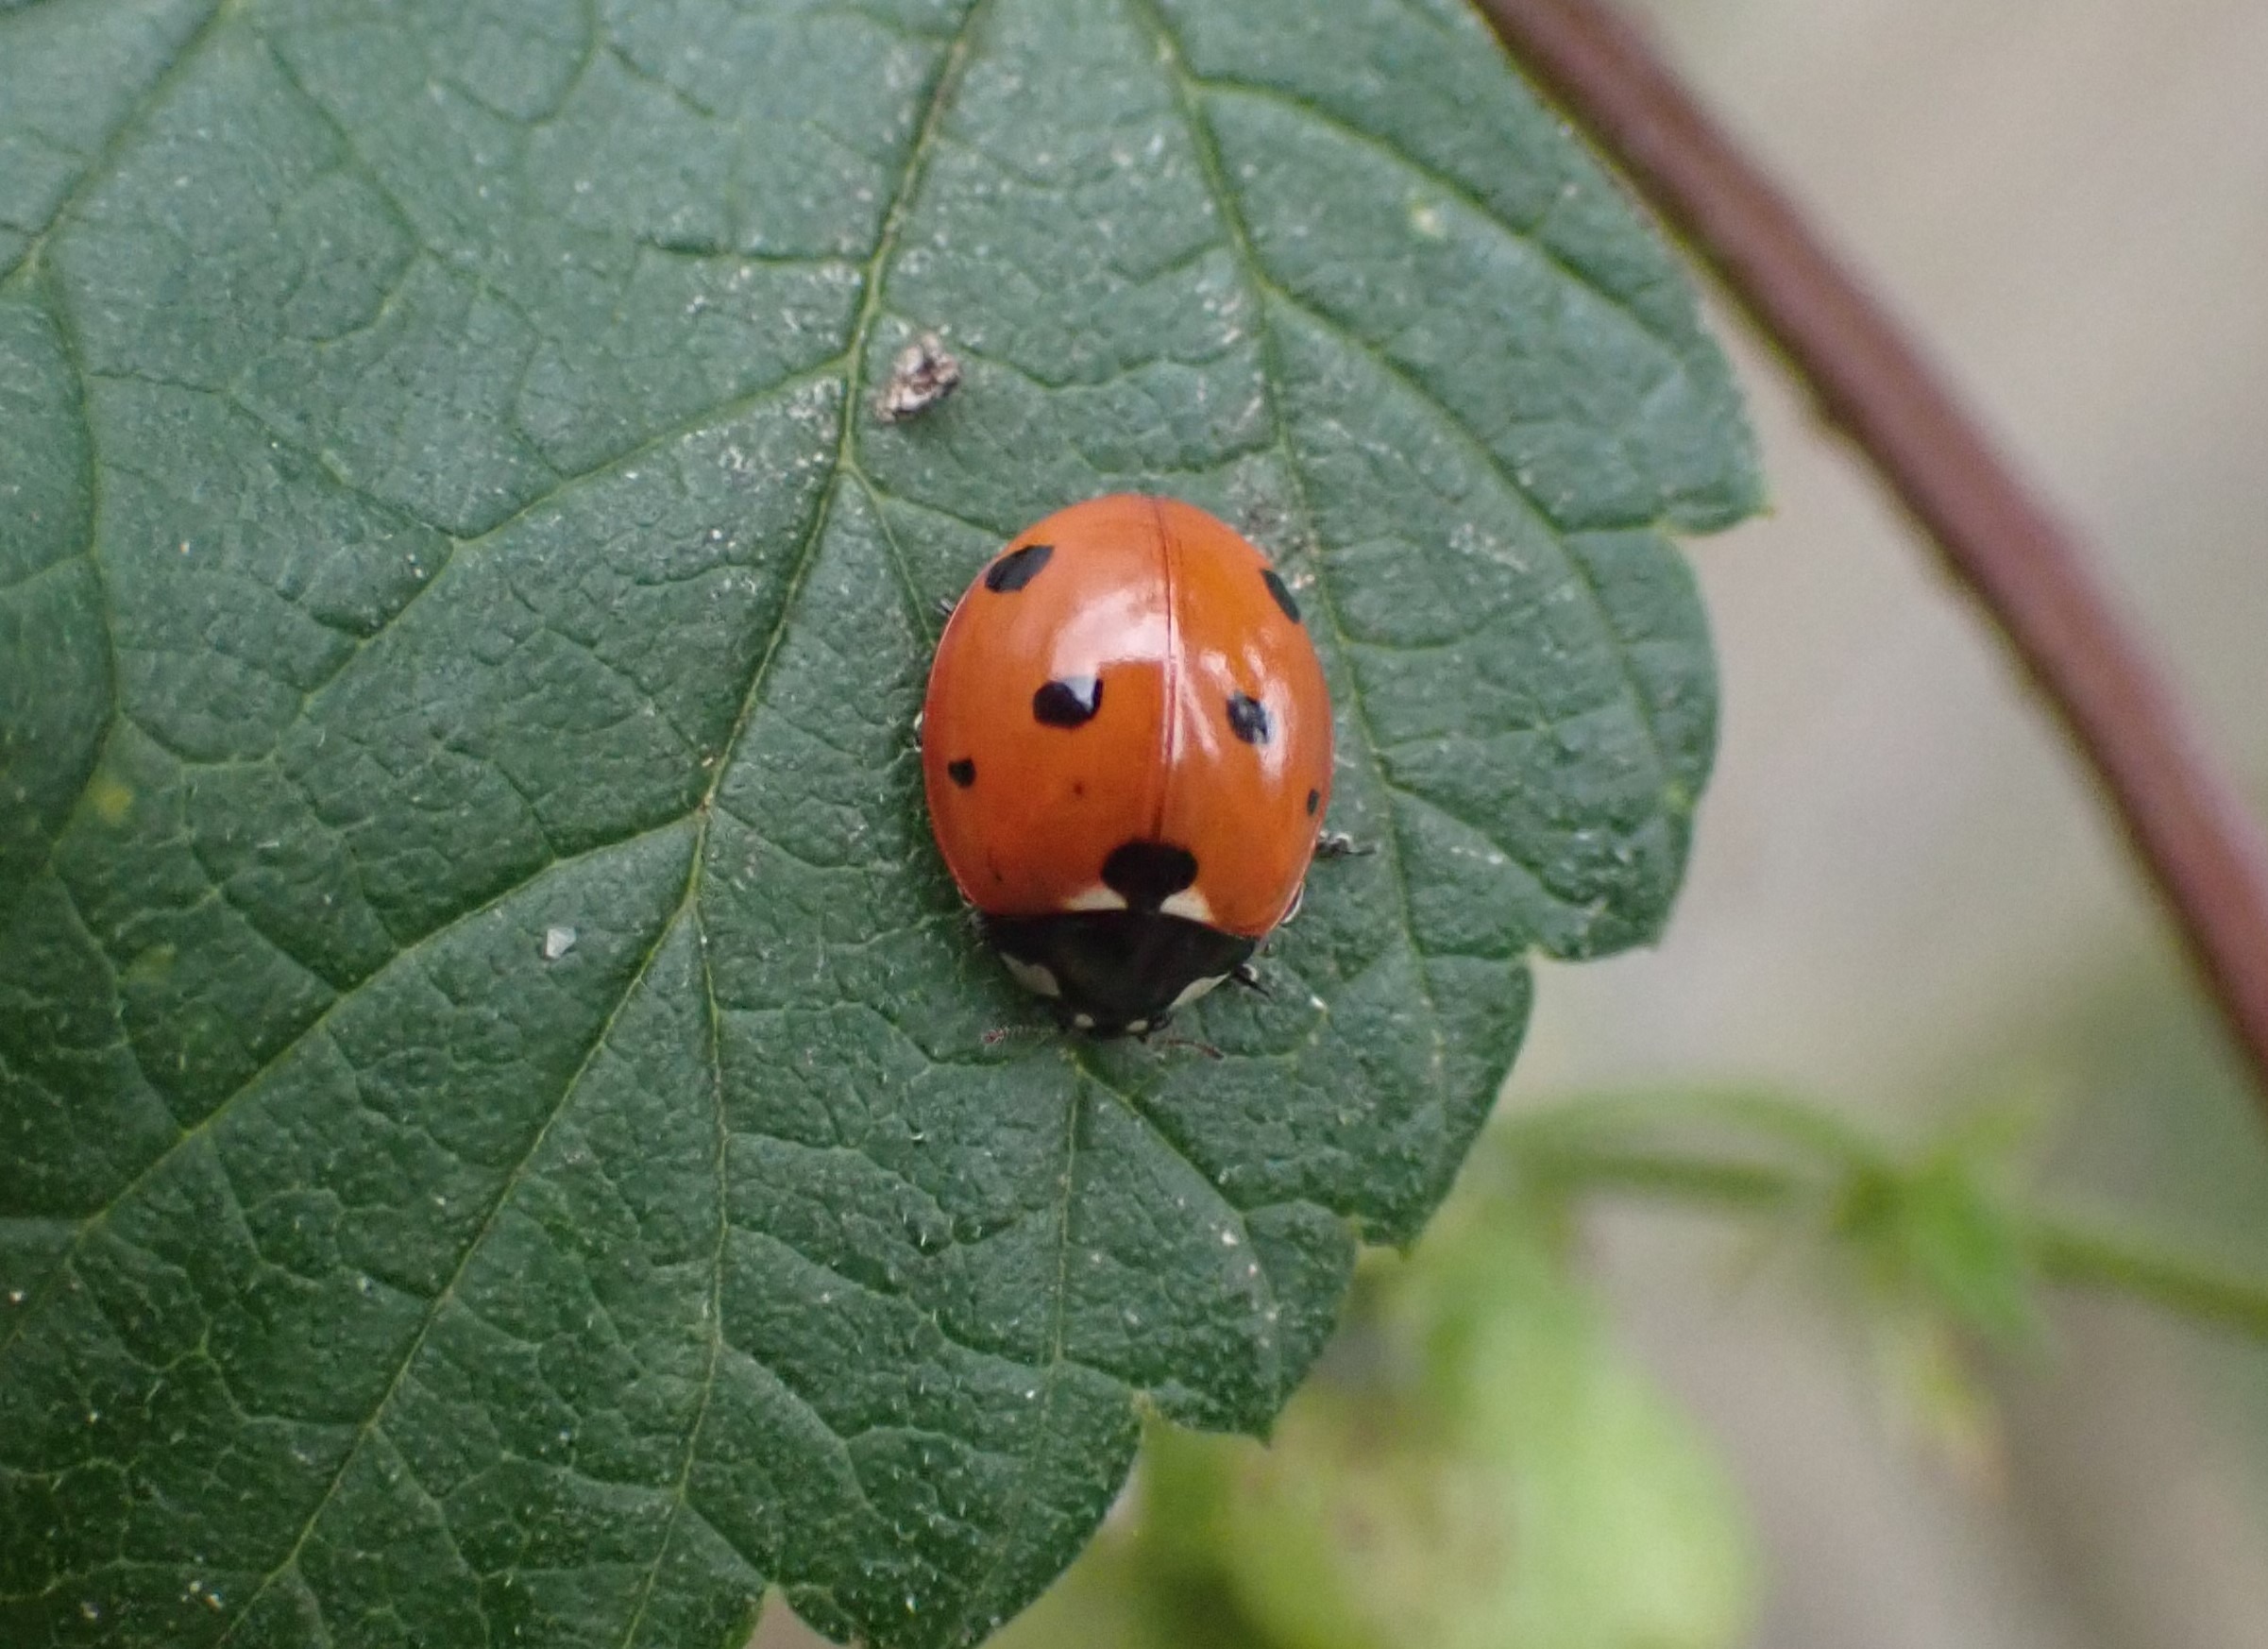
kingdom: Animalia
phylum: Arthropoda
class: Insecta
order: Coleoptera
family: Coccinellidae
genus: Coccinella
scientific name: Coccinella septempunctata
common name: Syvplettet mariehøne
